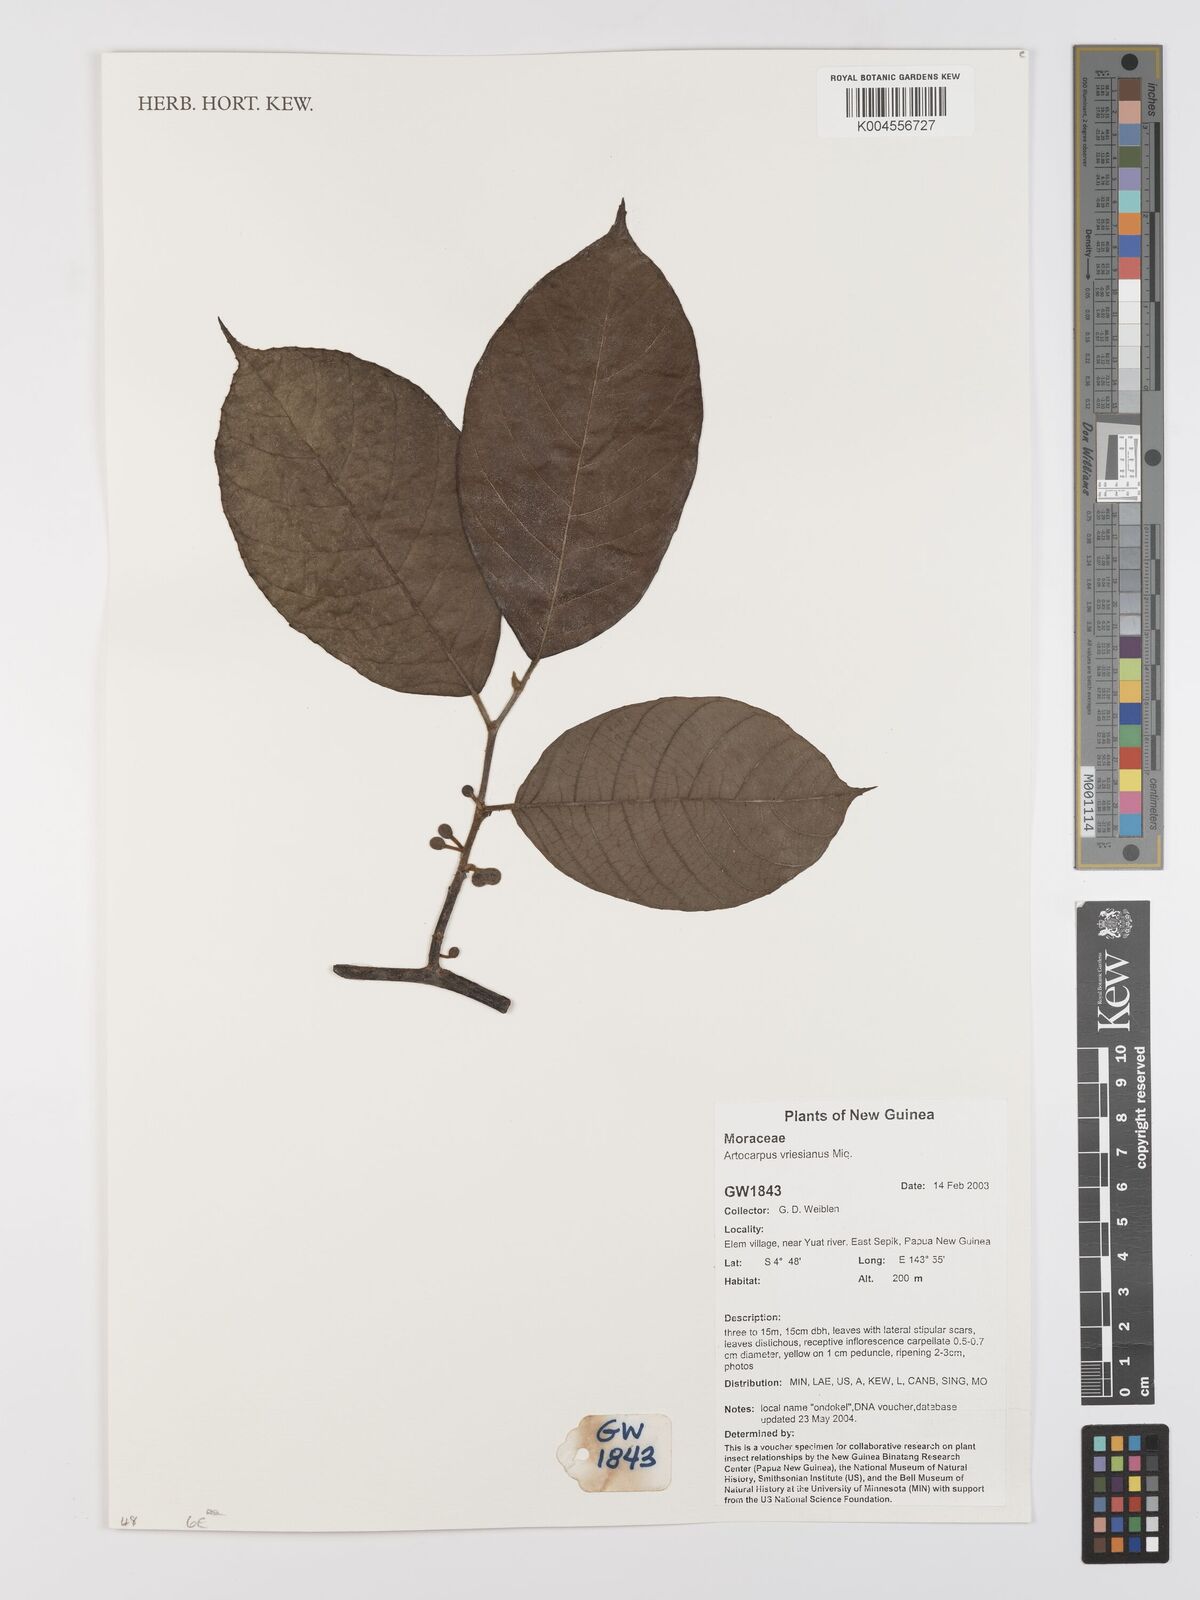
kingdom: Plantae
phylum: Tracheophyta
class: Magnoliopsida
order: Rosales
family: Moraceae
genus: Artocarpus
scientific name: Artocarpus vrieseanus
